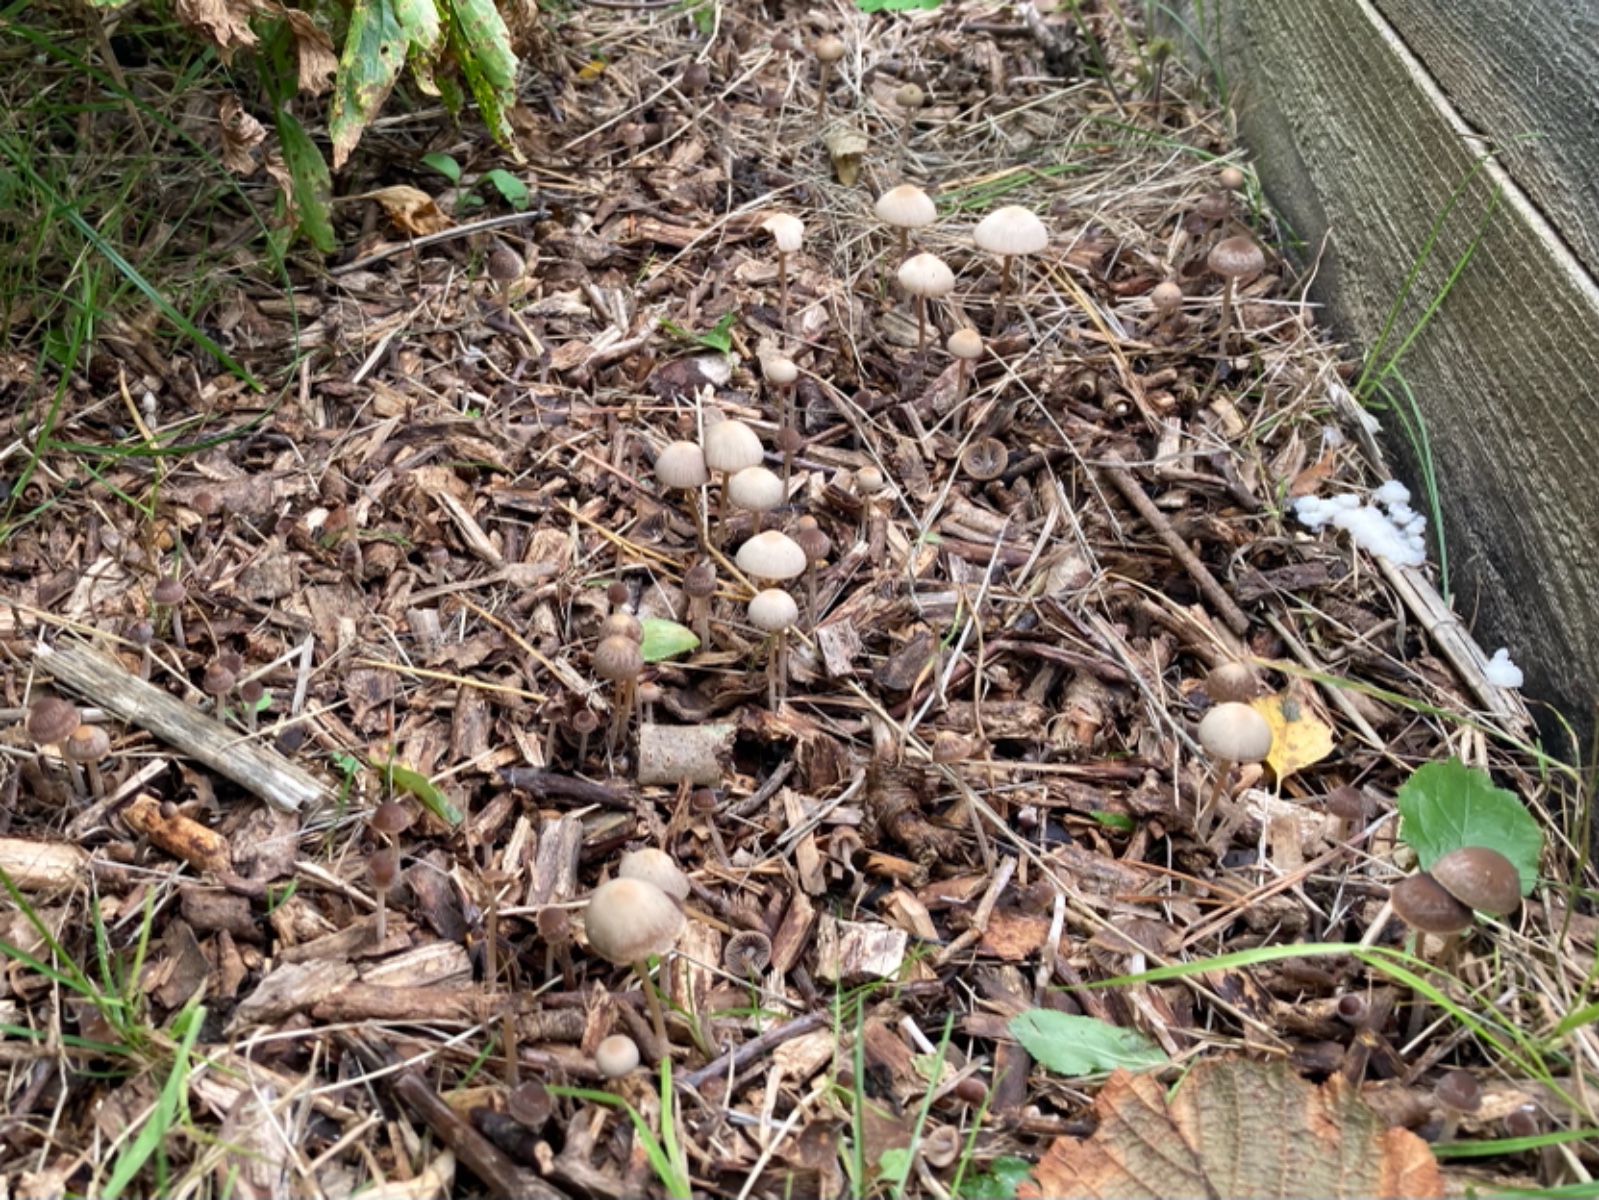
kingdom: Fungi
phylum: Basidiomycota
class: Agaricomycetes
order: Agaricales
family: Psathyrellaceae
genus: Psathyrella
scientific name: Psathyrella
